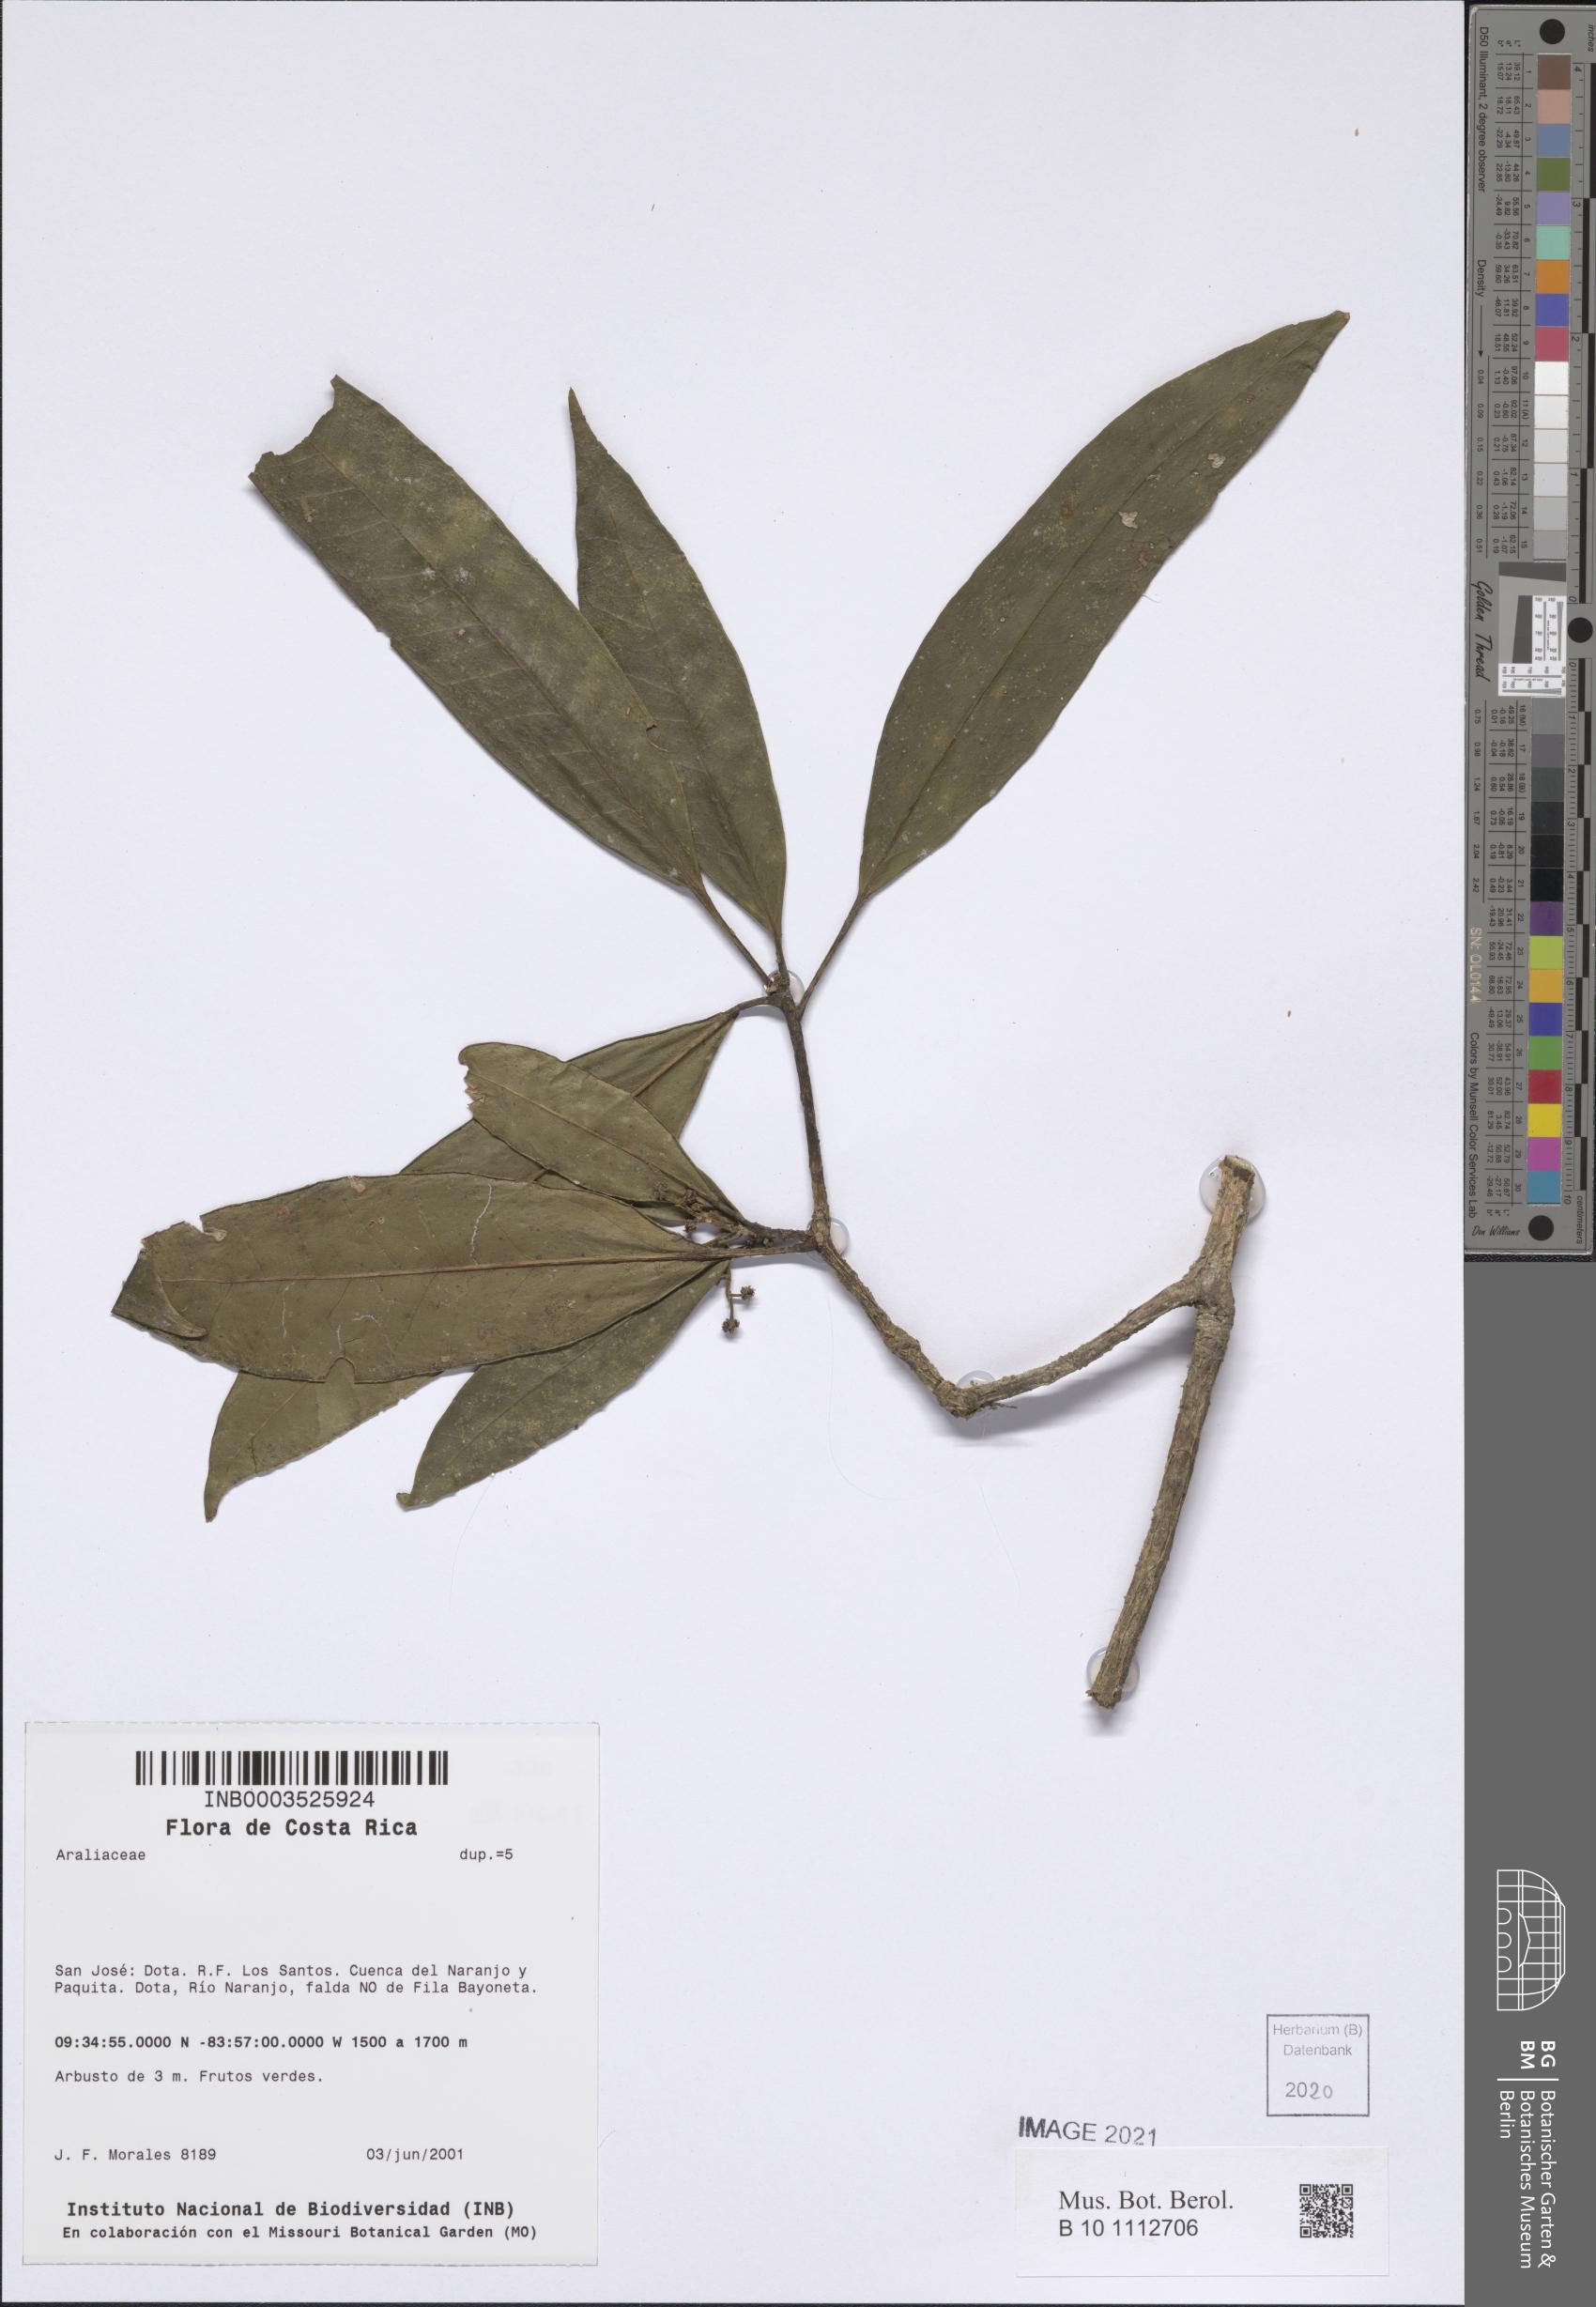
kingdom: Plantae
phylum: Tracheophyta
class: Magnoliopsida
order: Apiales
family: Araliaceae
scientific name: Araliaceae
